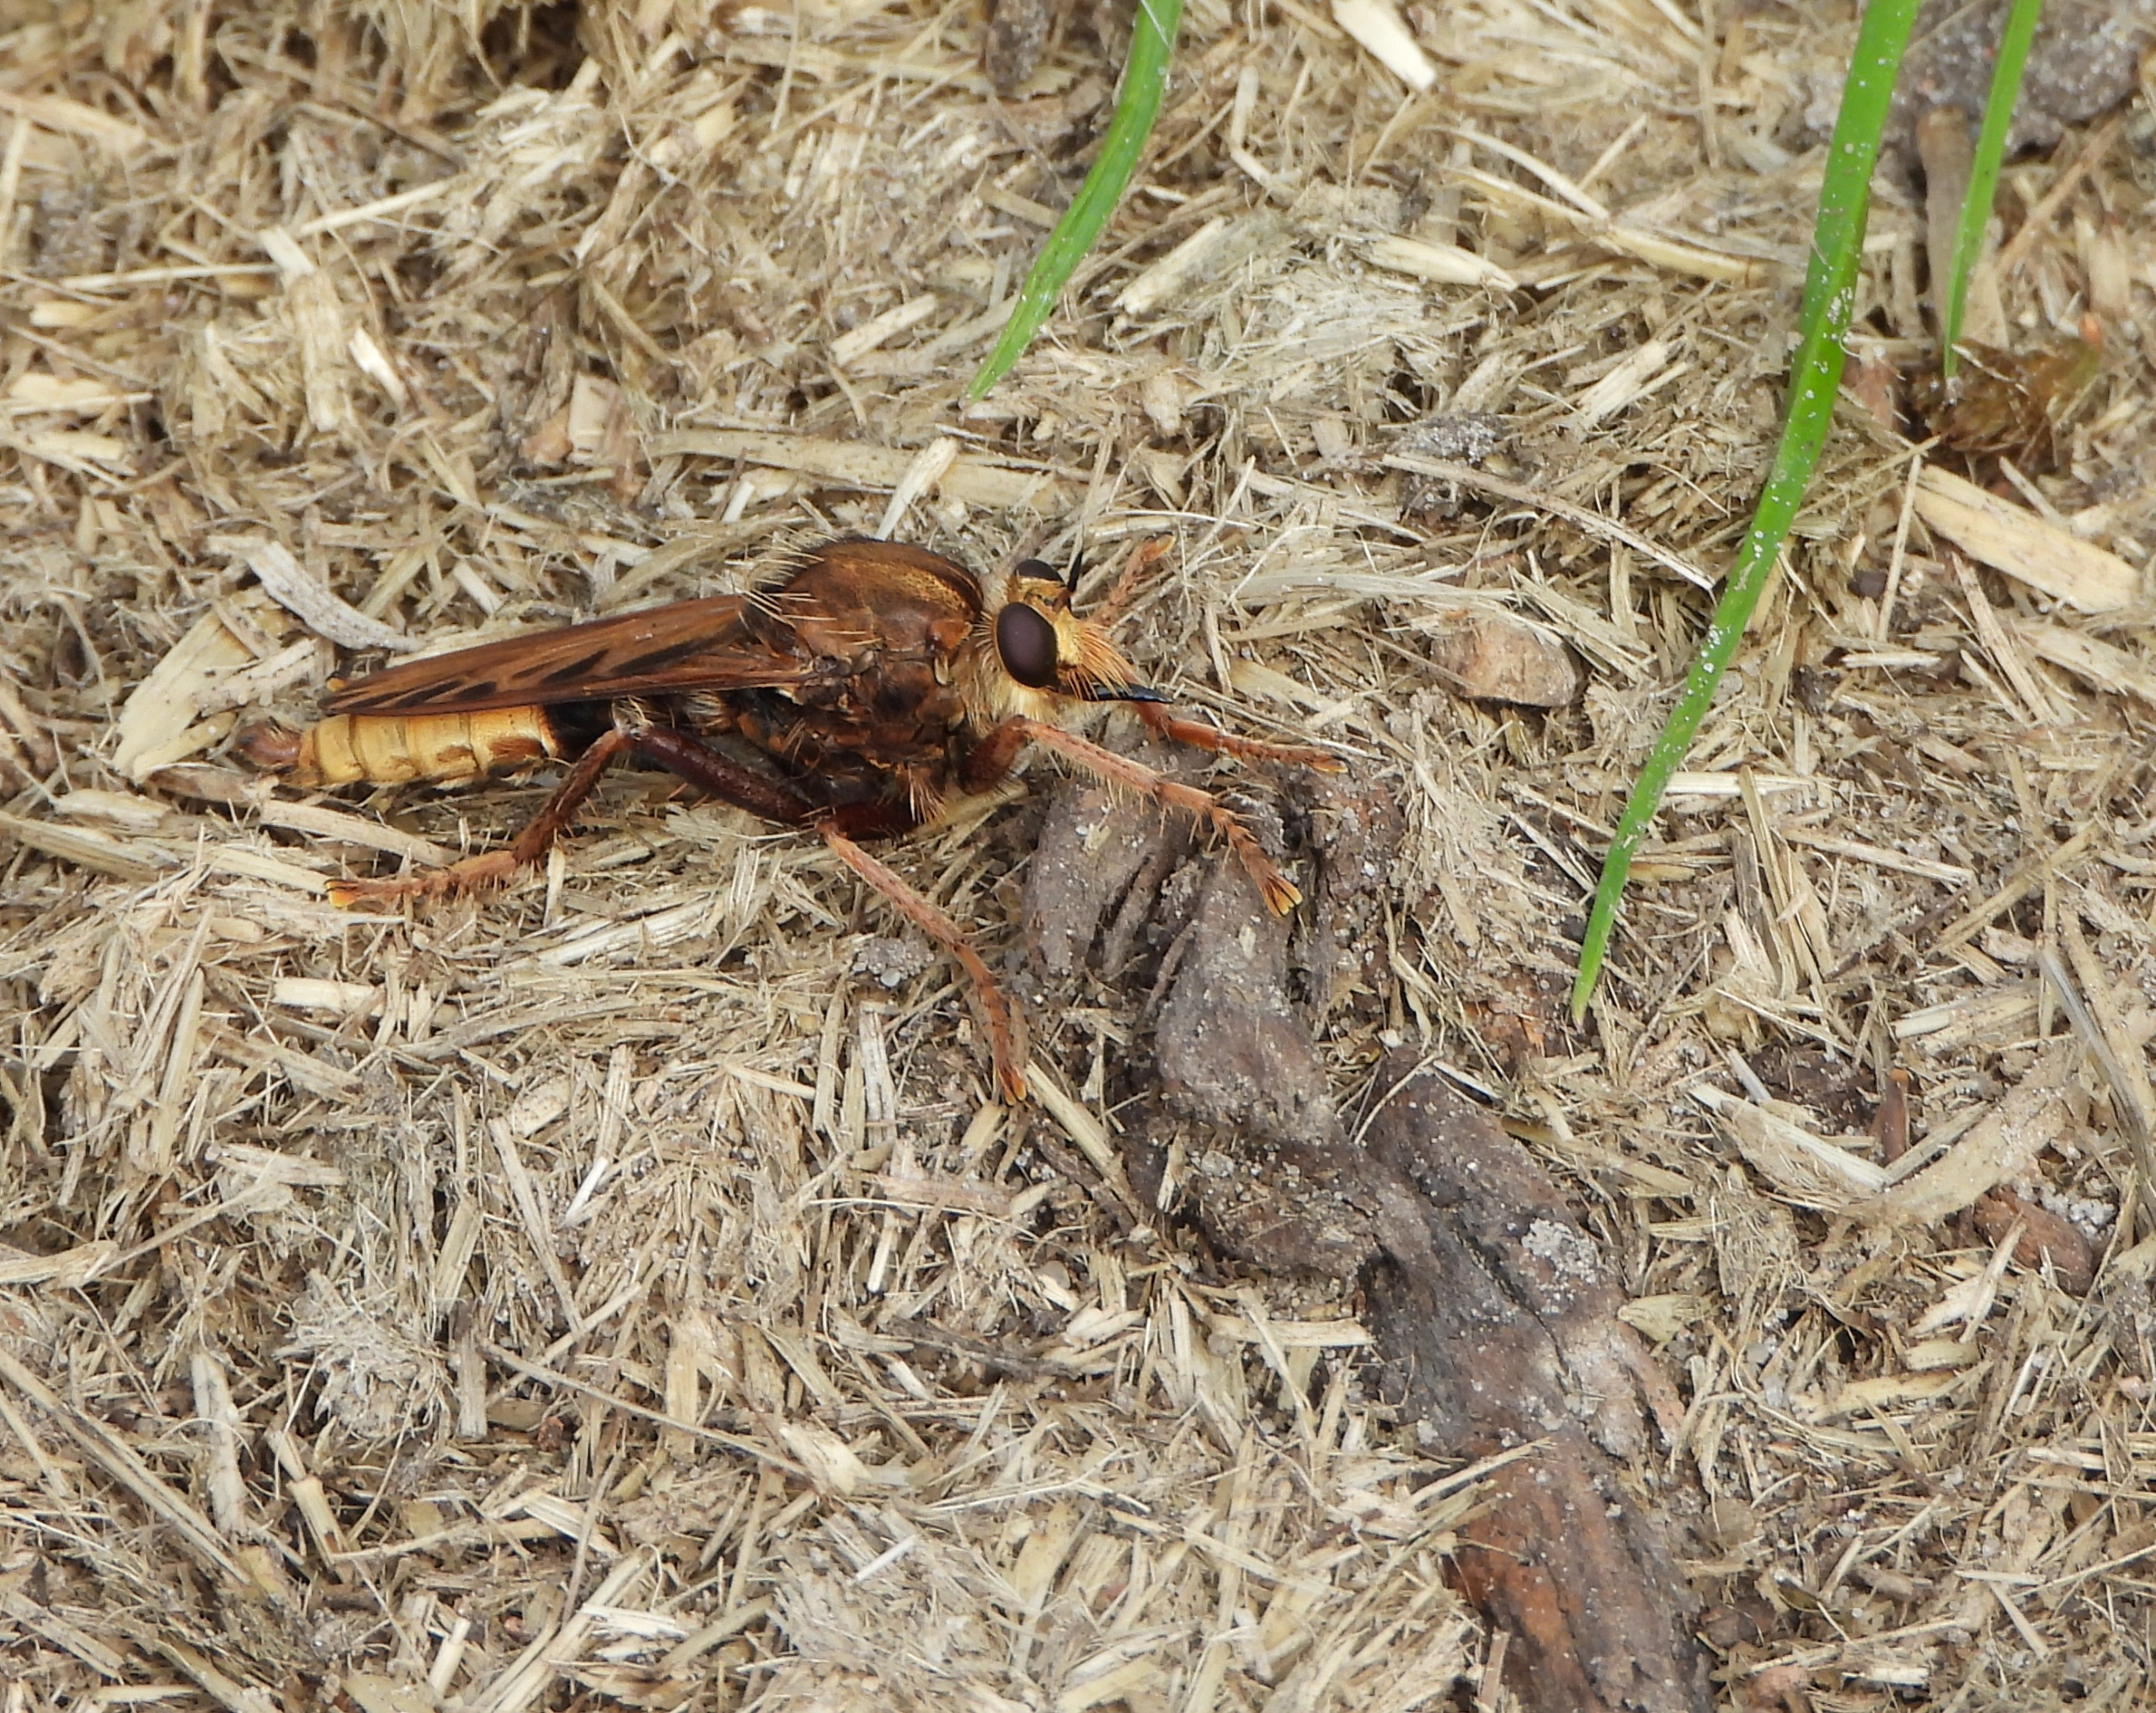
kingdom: Animalia
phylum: Arthropoda
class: Insecta
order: Diptera
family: Asilidae
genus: Asilus
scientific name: Asilus crabroniformis
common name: Stor gødningsrovflue
